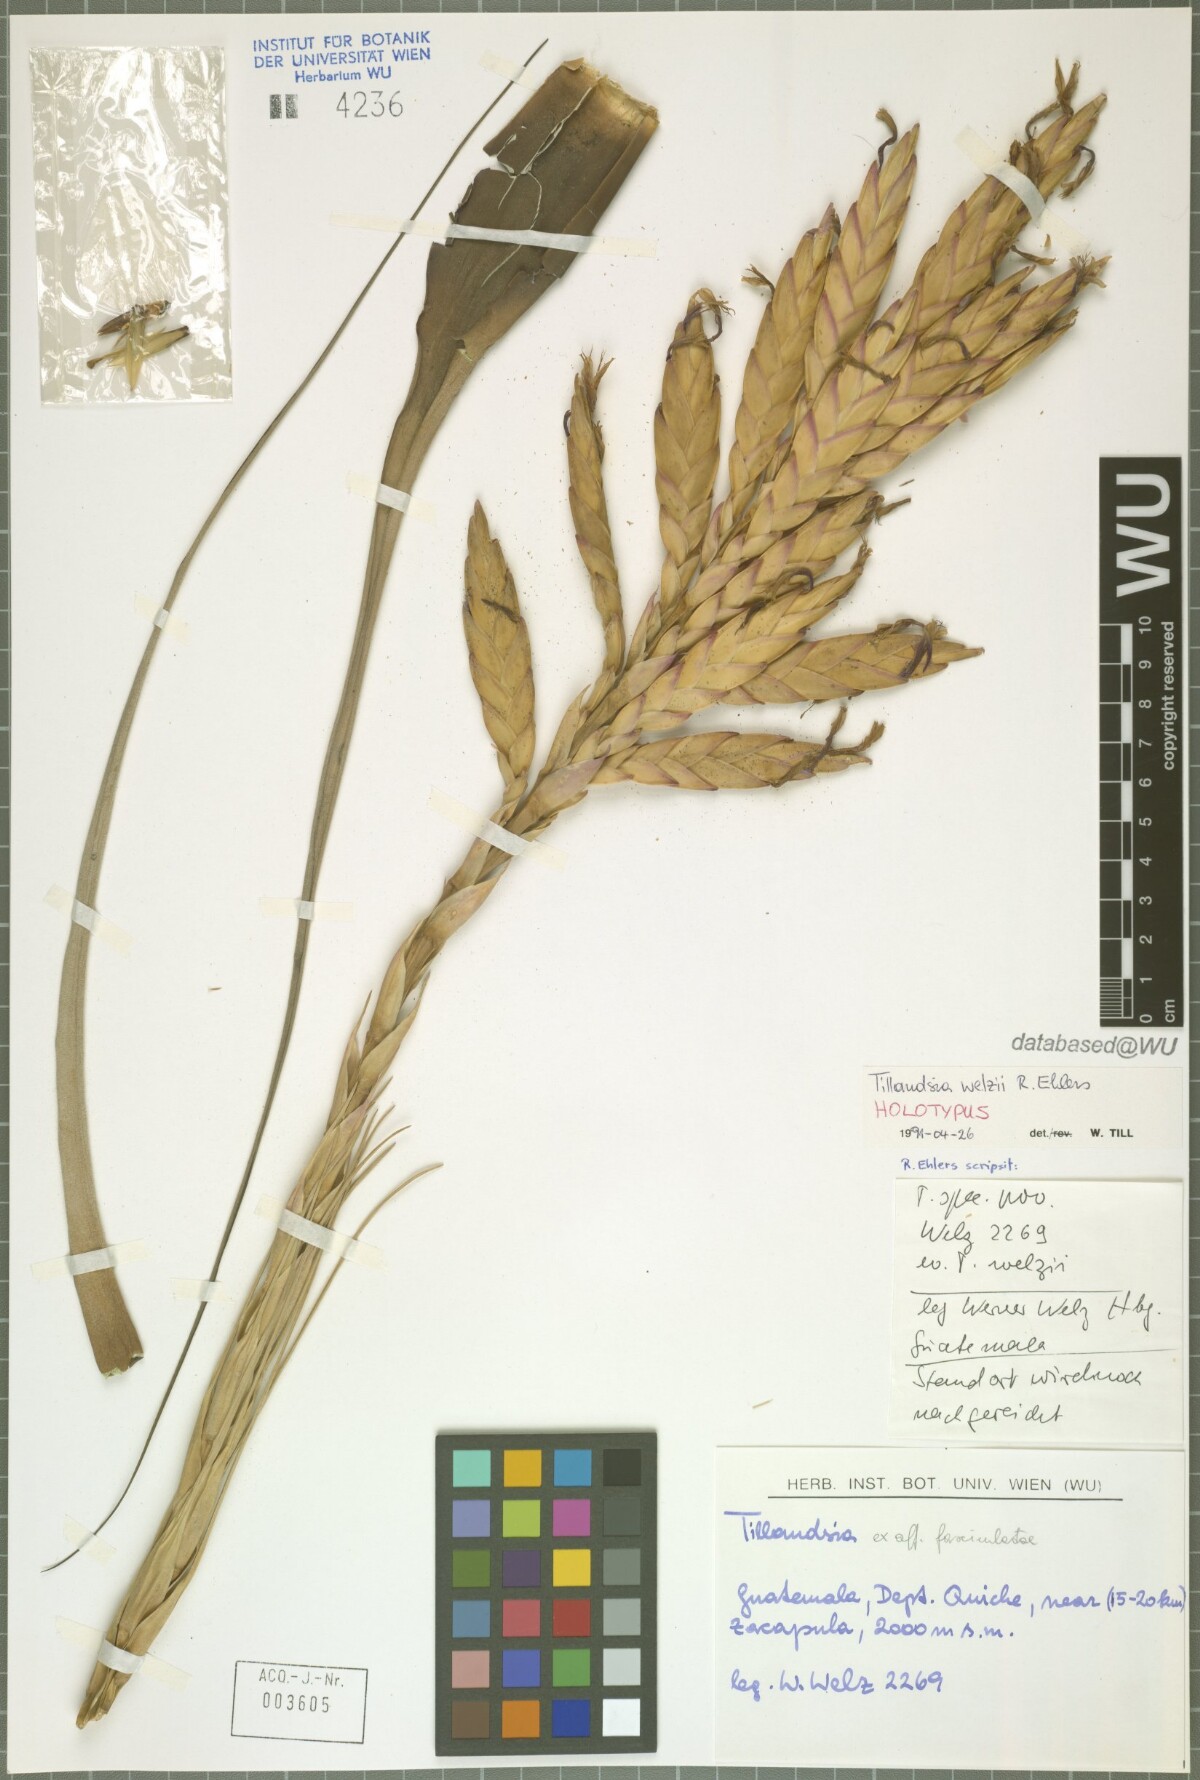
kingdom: Plantae
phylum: Tracheophyta
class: Liliopsida
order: Poales
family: Bromeliaceae
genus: Tillandsia
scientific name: Tillandsia welzii
